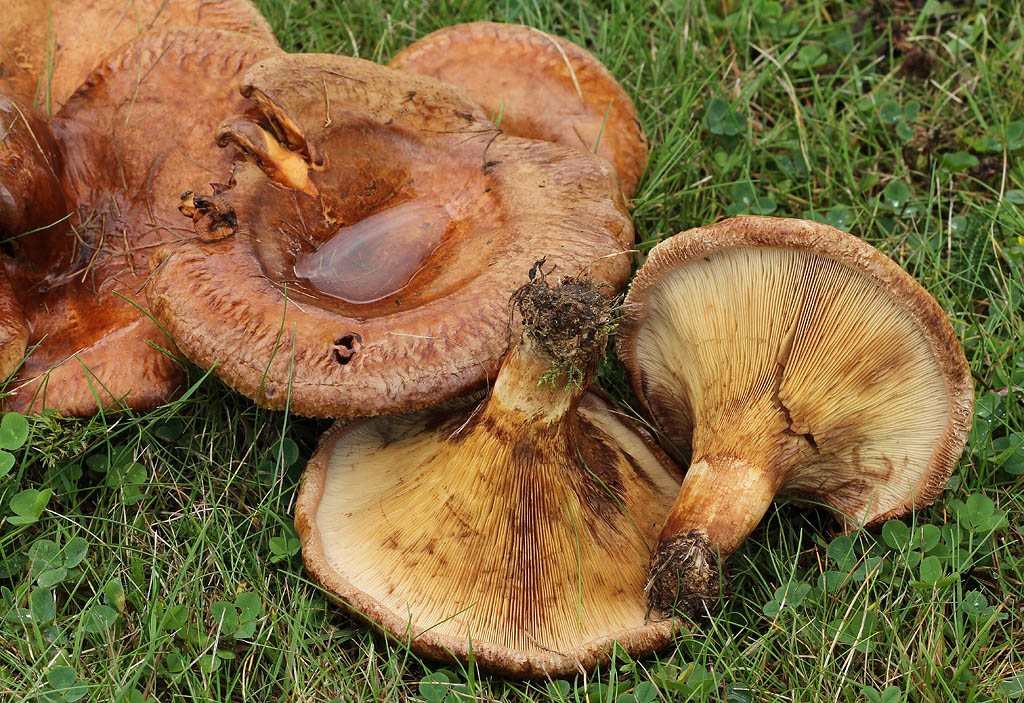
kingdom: Fungi
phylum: Basidiomycota
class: Agaricomycetes
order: Boletales
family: Paxillaceae
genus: Paxillus
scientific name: Paxillus ammoniavirescens
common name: olivensporet netbladhat
